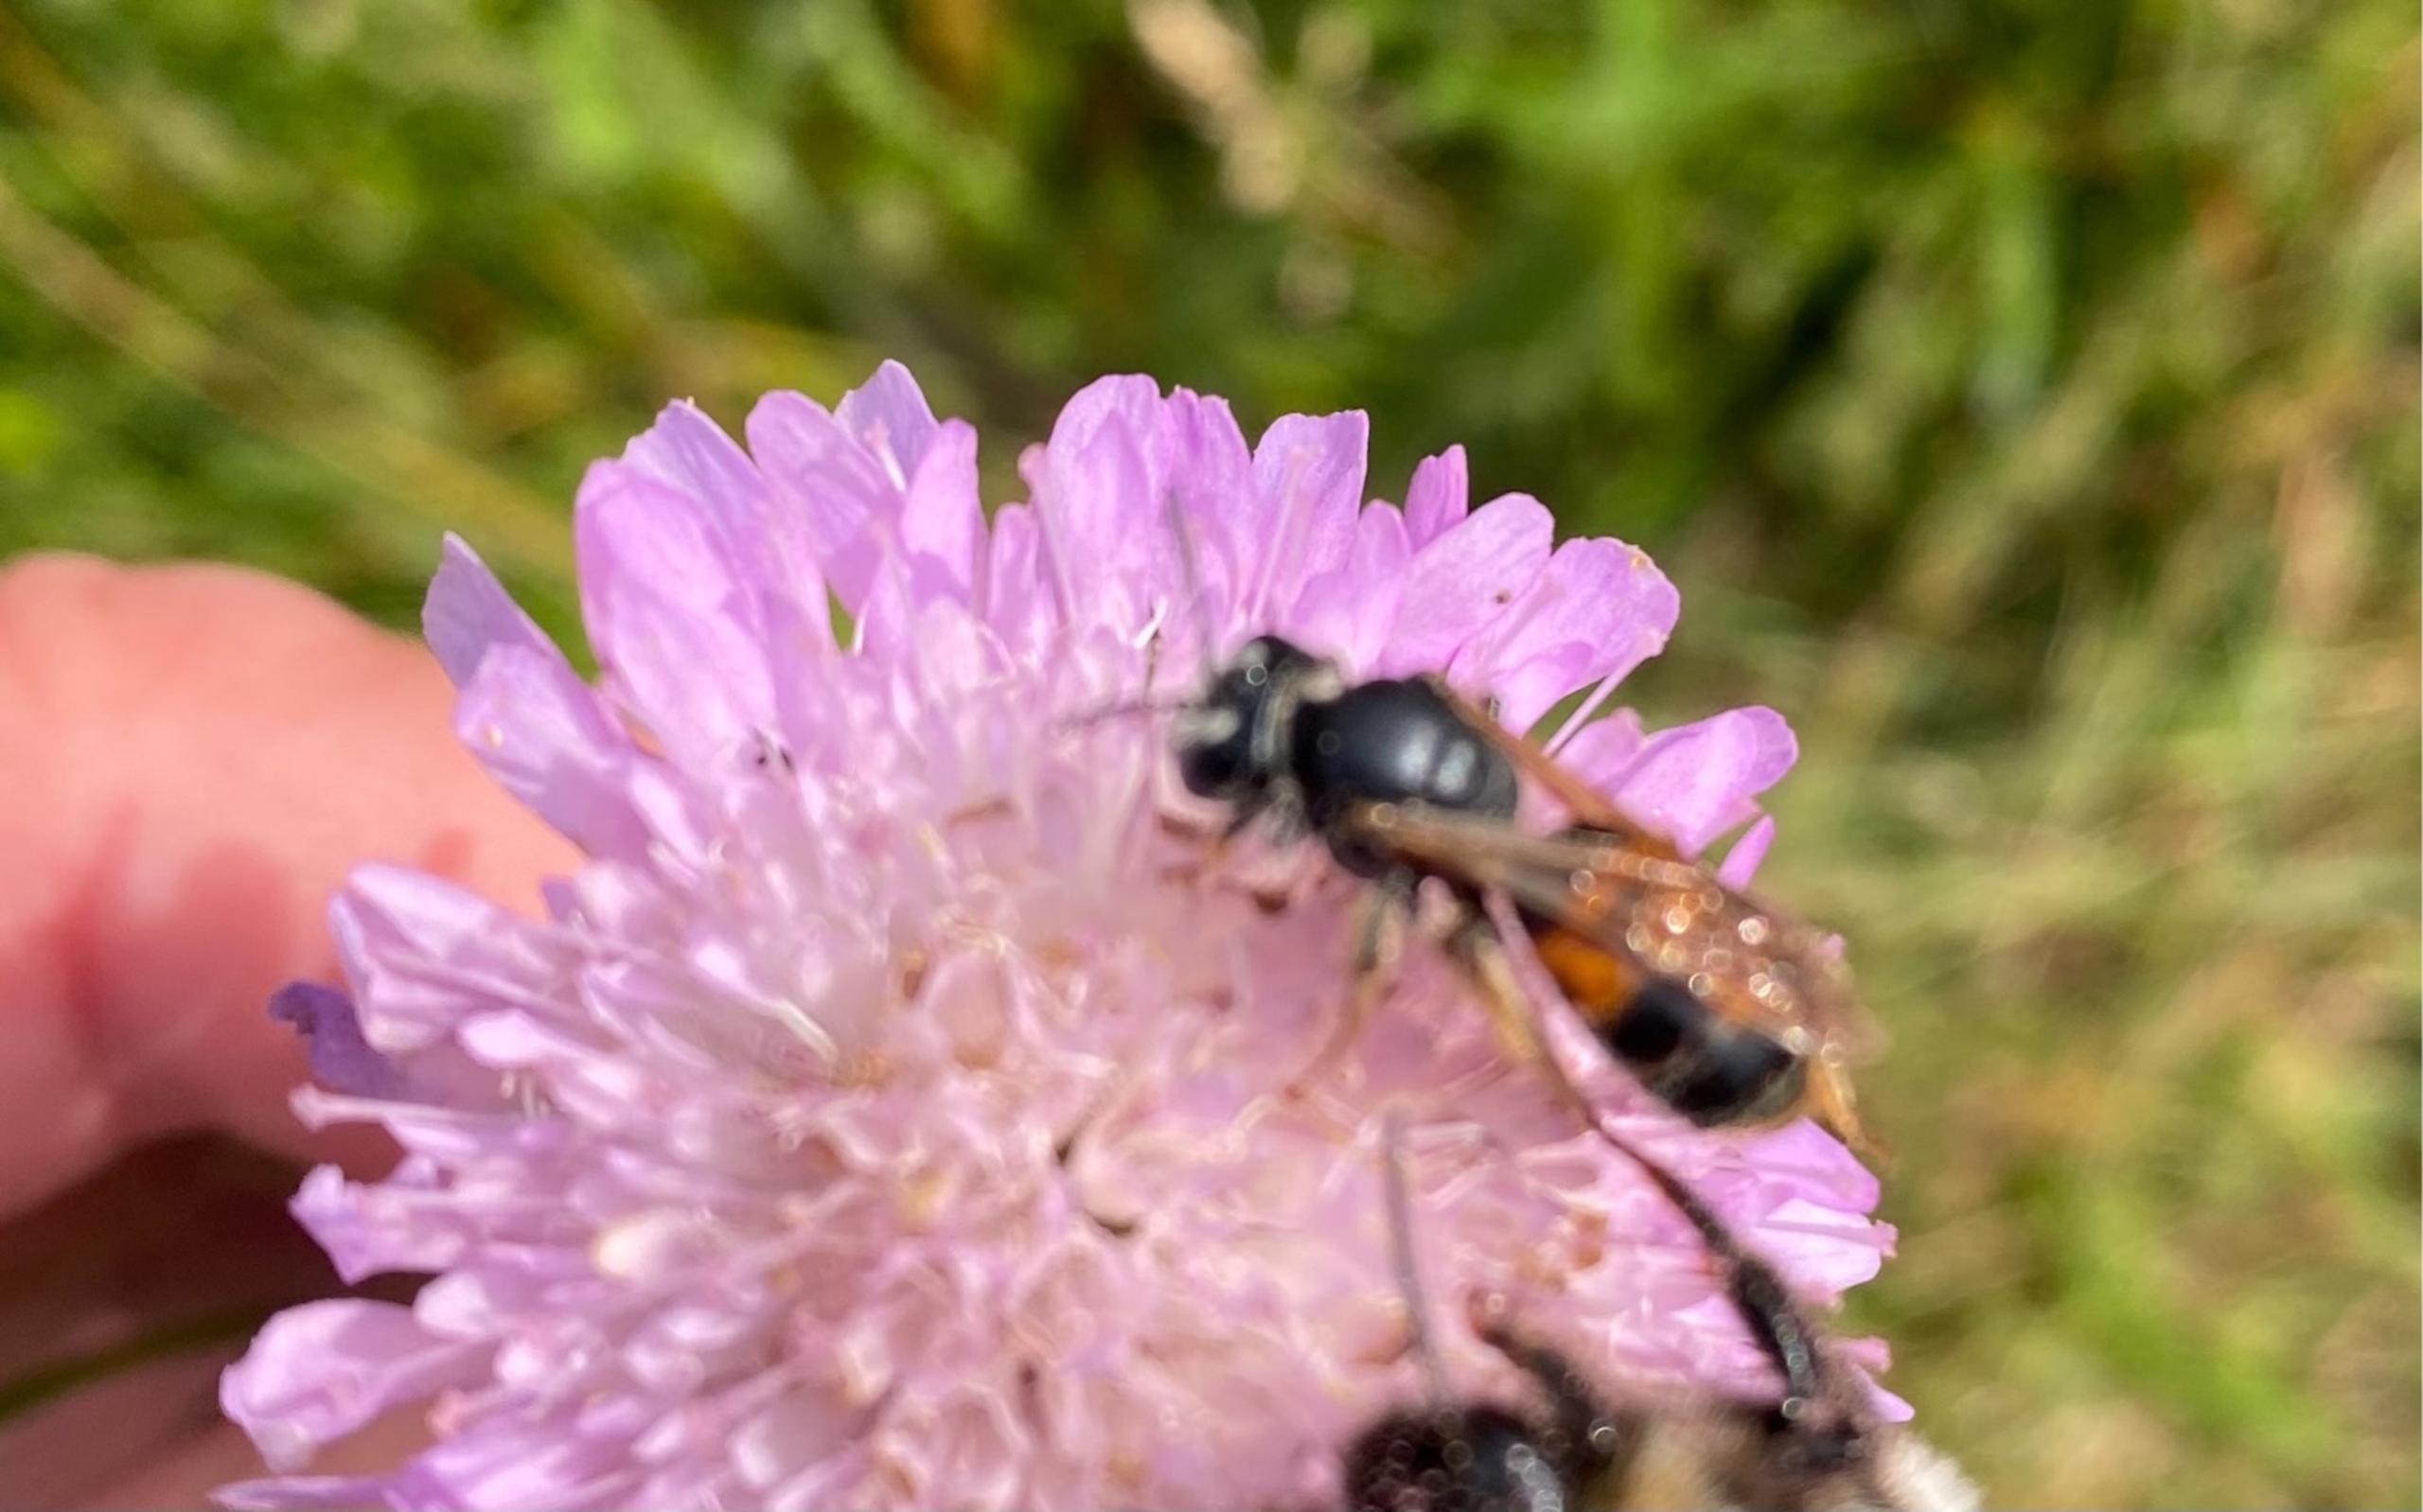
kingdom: Animalia
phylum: Arthropoda
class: Insecta
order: Hymenoptera
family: Andrenidae
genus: Andrena
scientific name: Andrena hattorfiana
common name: Blåhatjordbi
